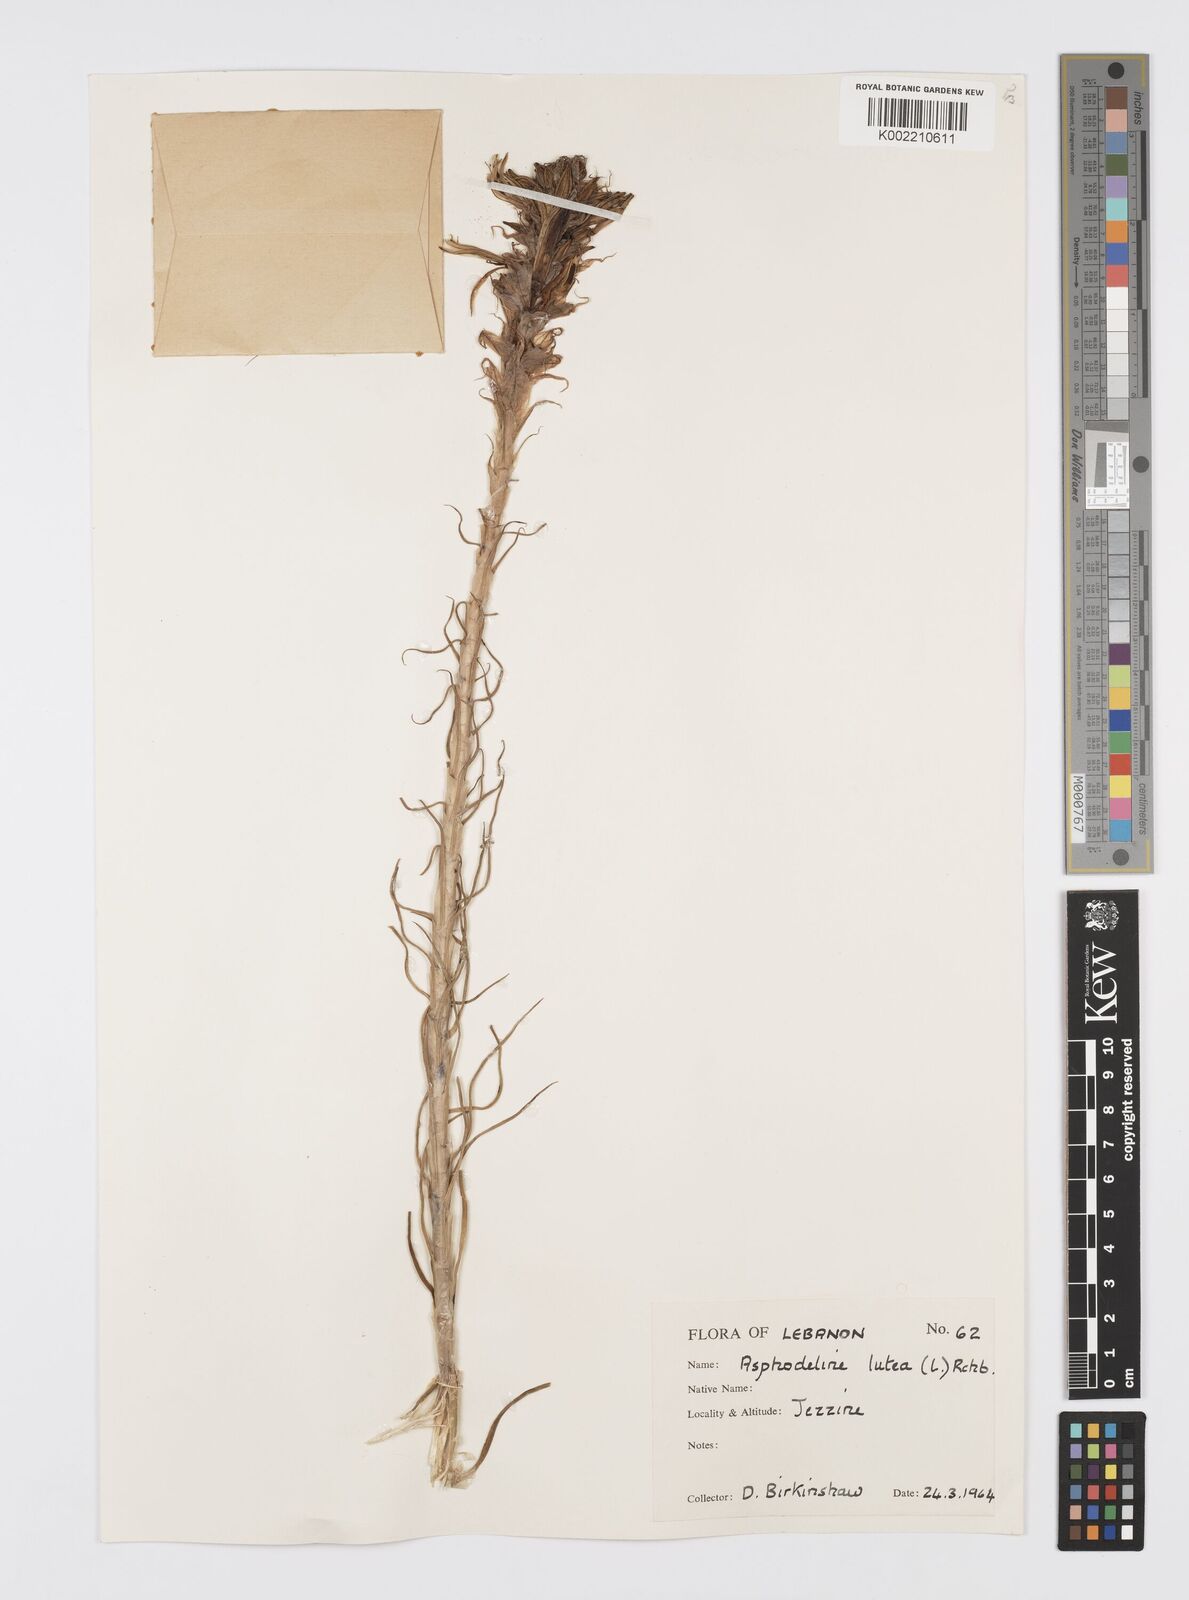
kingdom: Plantae
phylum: Tracheophyta
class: Liliopsida
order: Asparagales
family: Asphodelaceae
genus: Asphodeline
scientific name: Asphodeline lutea
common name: Yellow asphodel
